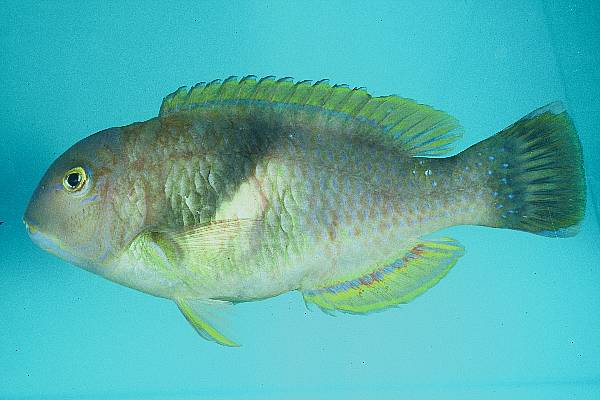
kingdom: Animalia
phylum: Chordata
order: Perciformes
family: Labridae
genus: Choerodon
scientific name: Choerodon robustus
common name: Robust tuskfish
